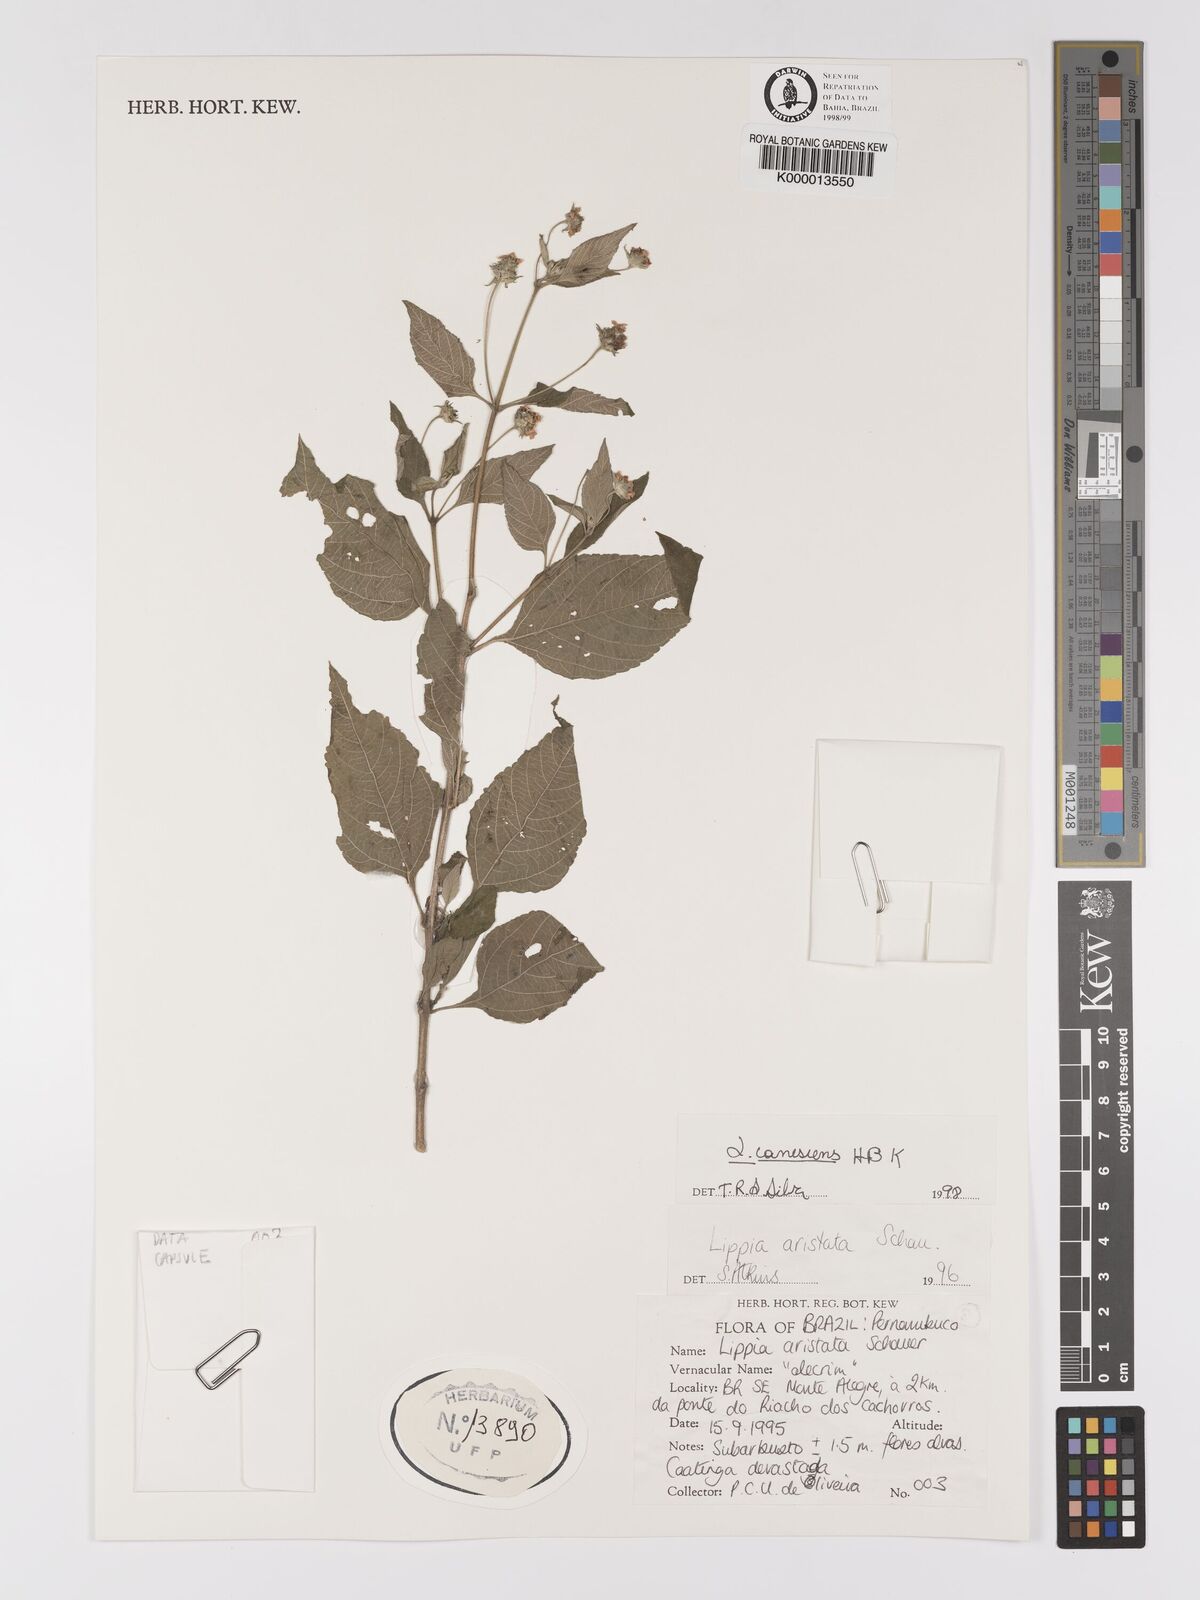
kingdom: Plantae
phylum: Tracheophyta
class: Magnoliopsida
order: Lamiales
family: Verbenaceae
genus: Lantana
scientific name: Lantana canescens
